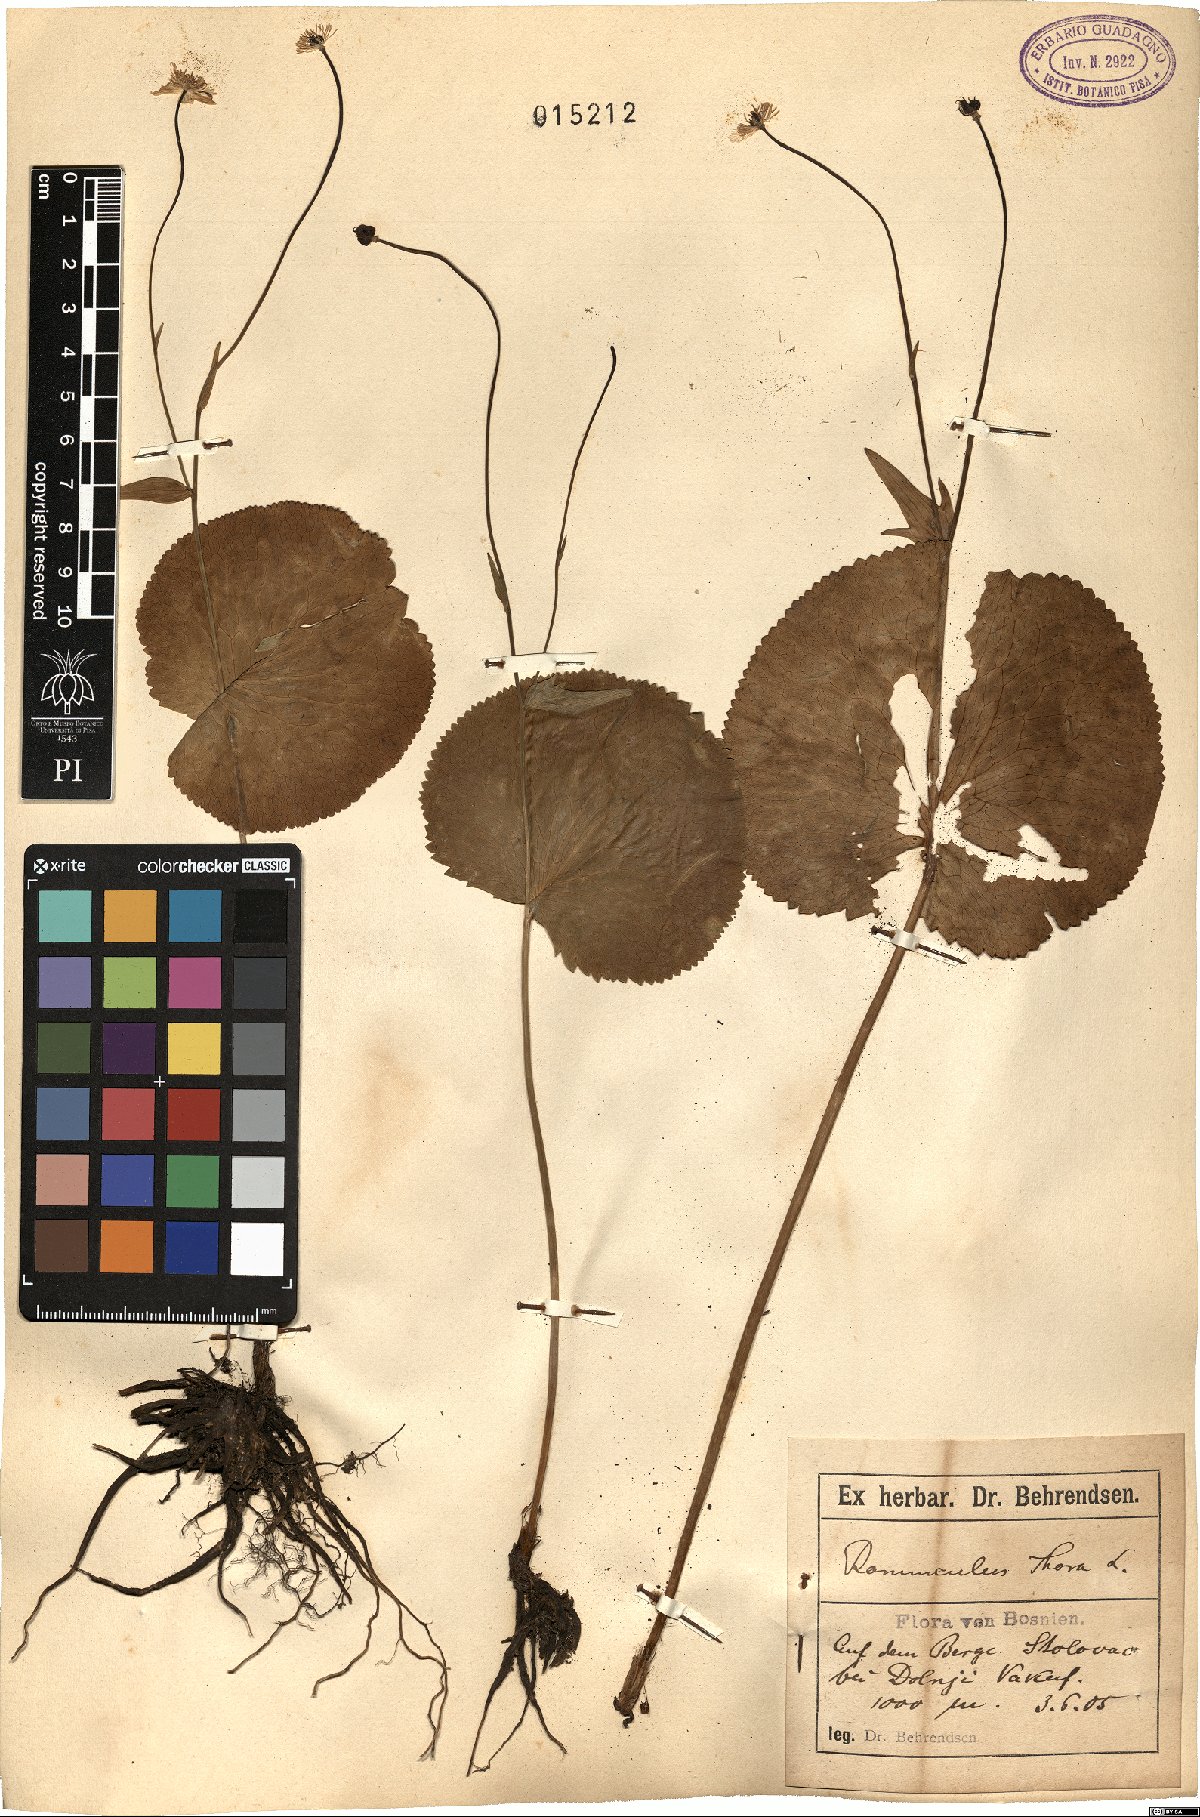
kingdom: Plantae
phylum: Tracheophyta
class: Magnoliopsida
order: Ranunculales
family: Ranunculaceae
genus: Ranunculus
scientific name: Ranunculus thora
